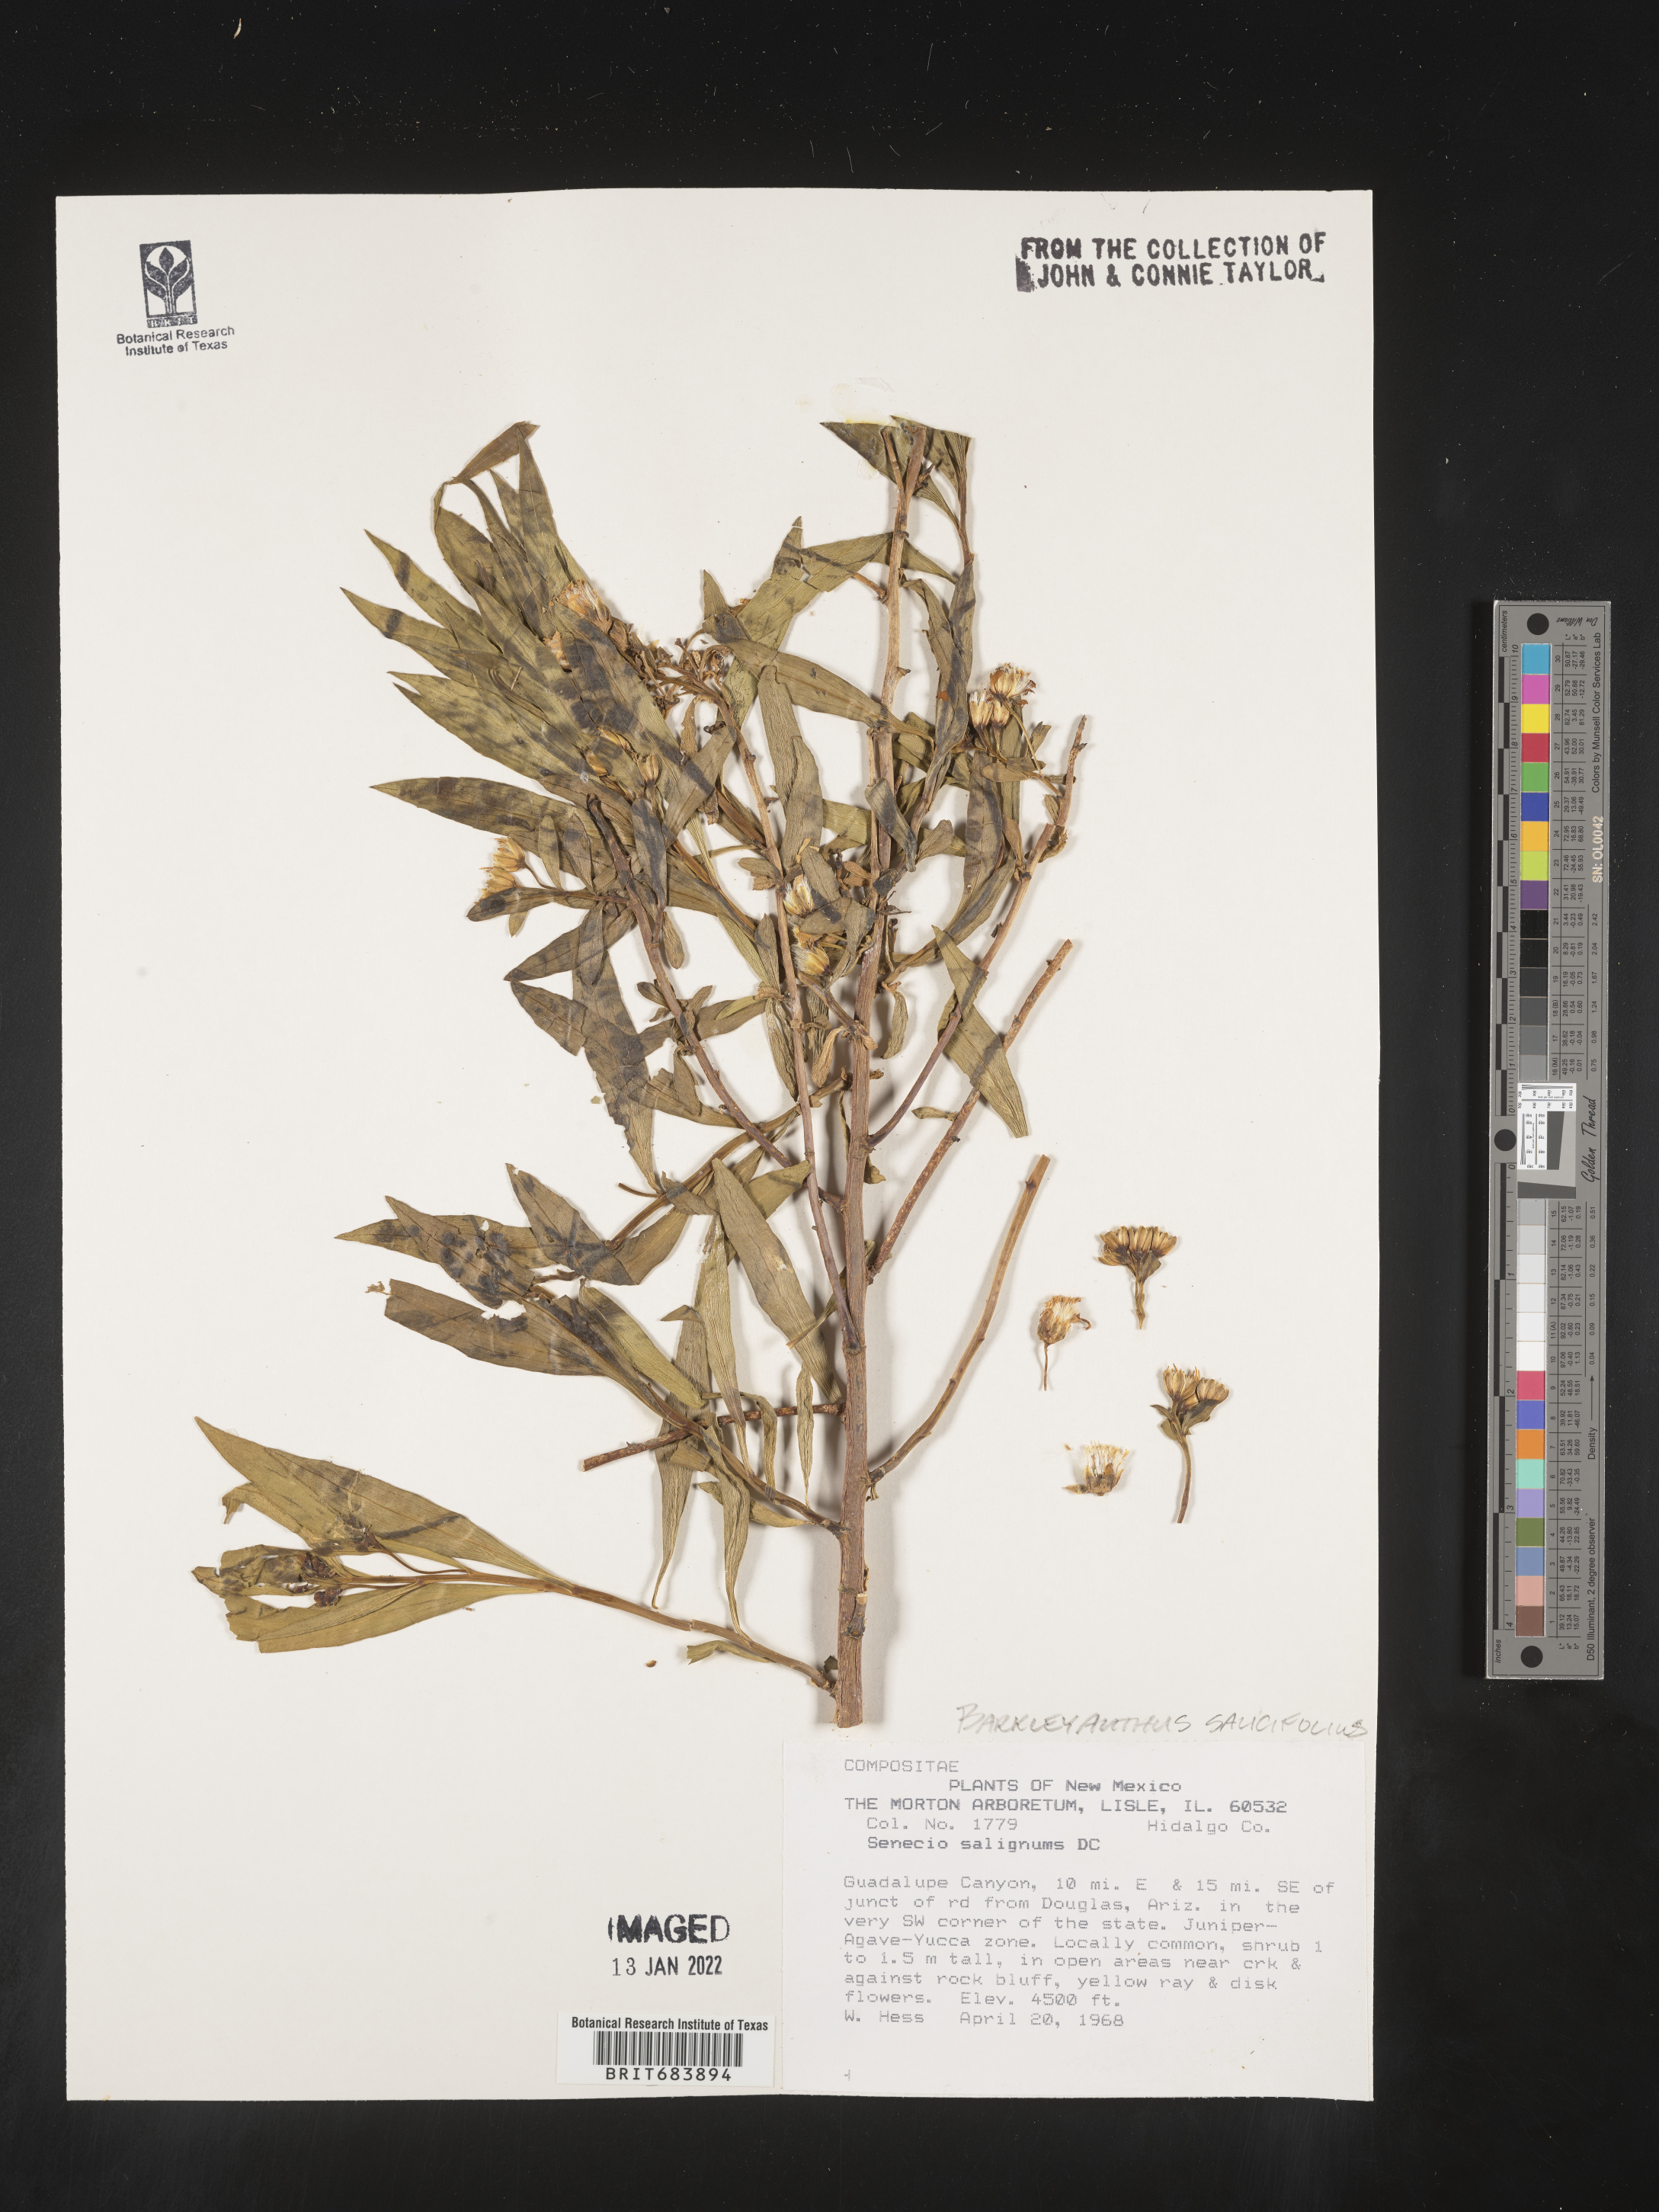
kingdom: Plantae
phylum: Tracheophyta
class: Magnoliopsida
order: Asterales
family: Asteraceae
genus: Barkleyanthus
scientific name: Barkleyanthus
